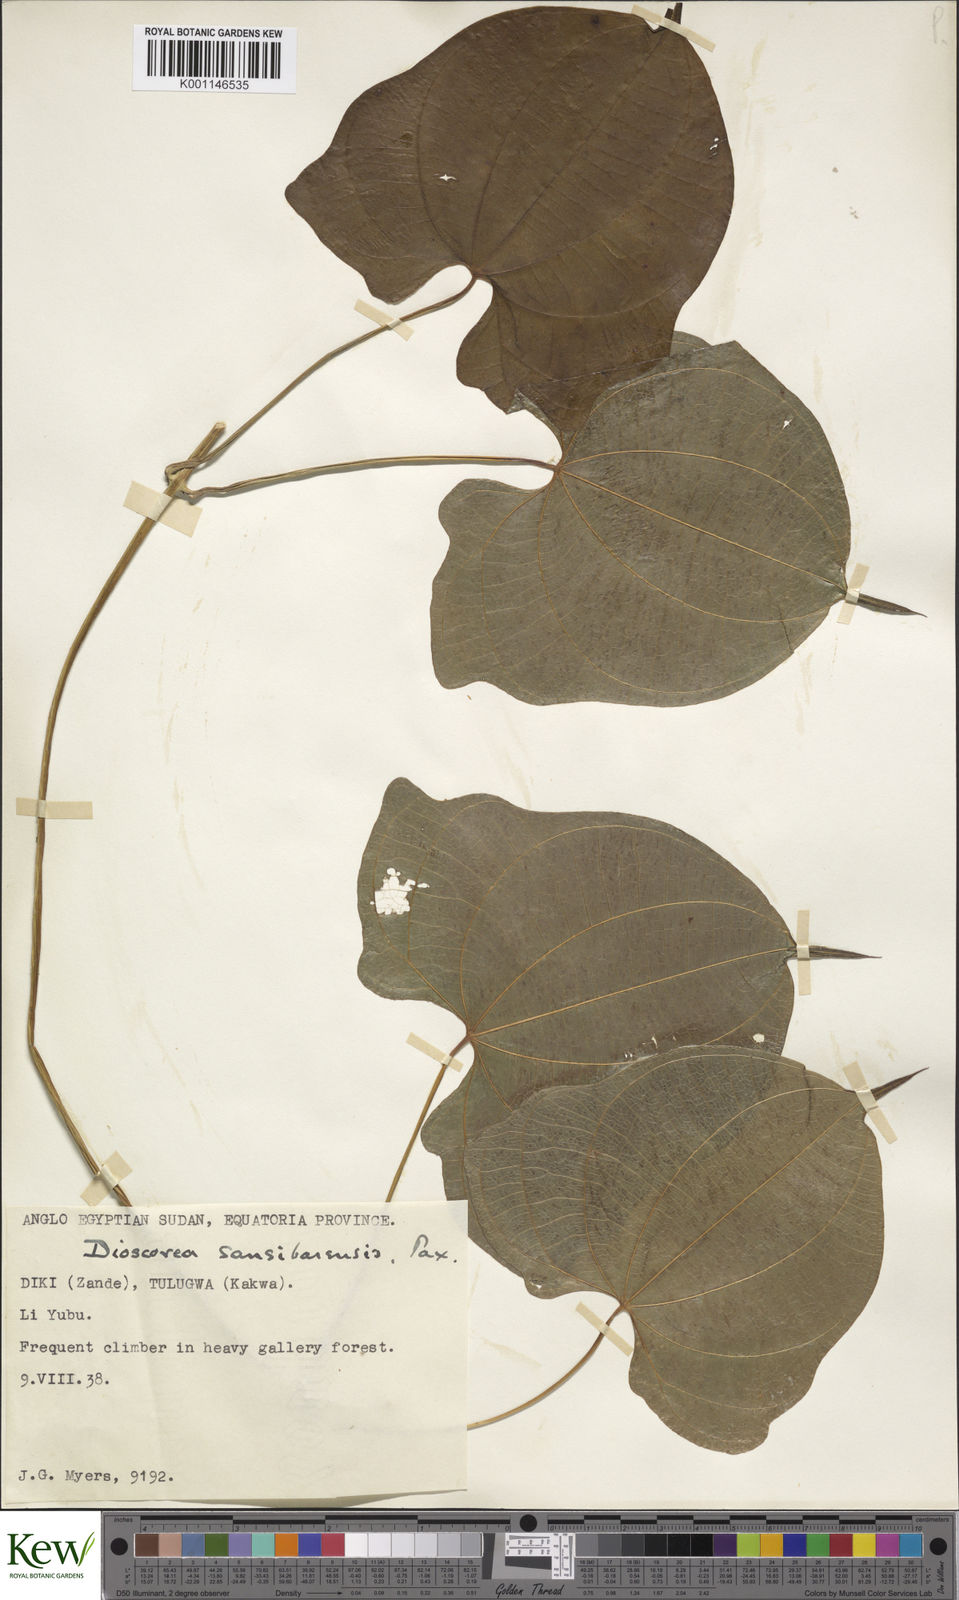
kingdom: Plantae
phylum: Tracheophyta
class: Liliopsida
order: Dioscoreales
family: Dioscoreaceae
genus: Dioscorea
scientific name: Dioscorea sansibarensis
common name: Zanzibar yam
